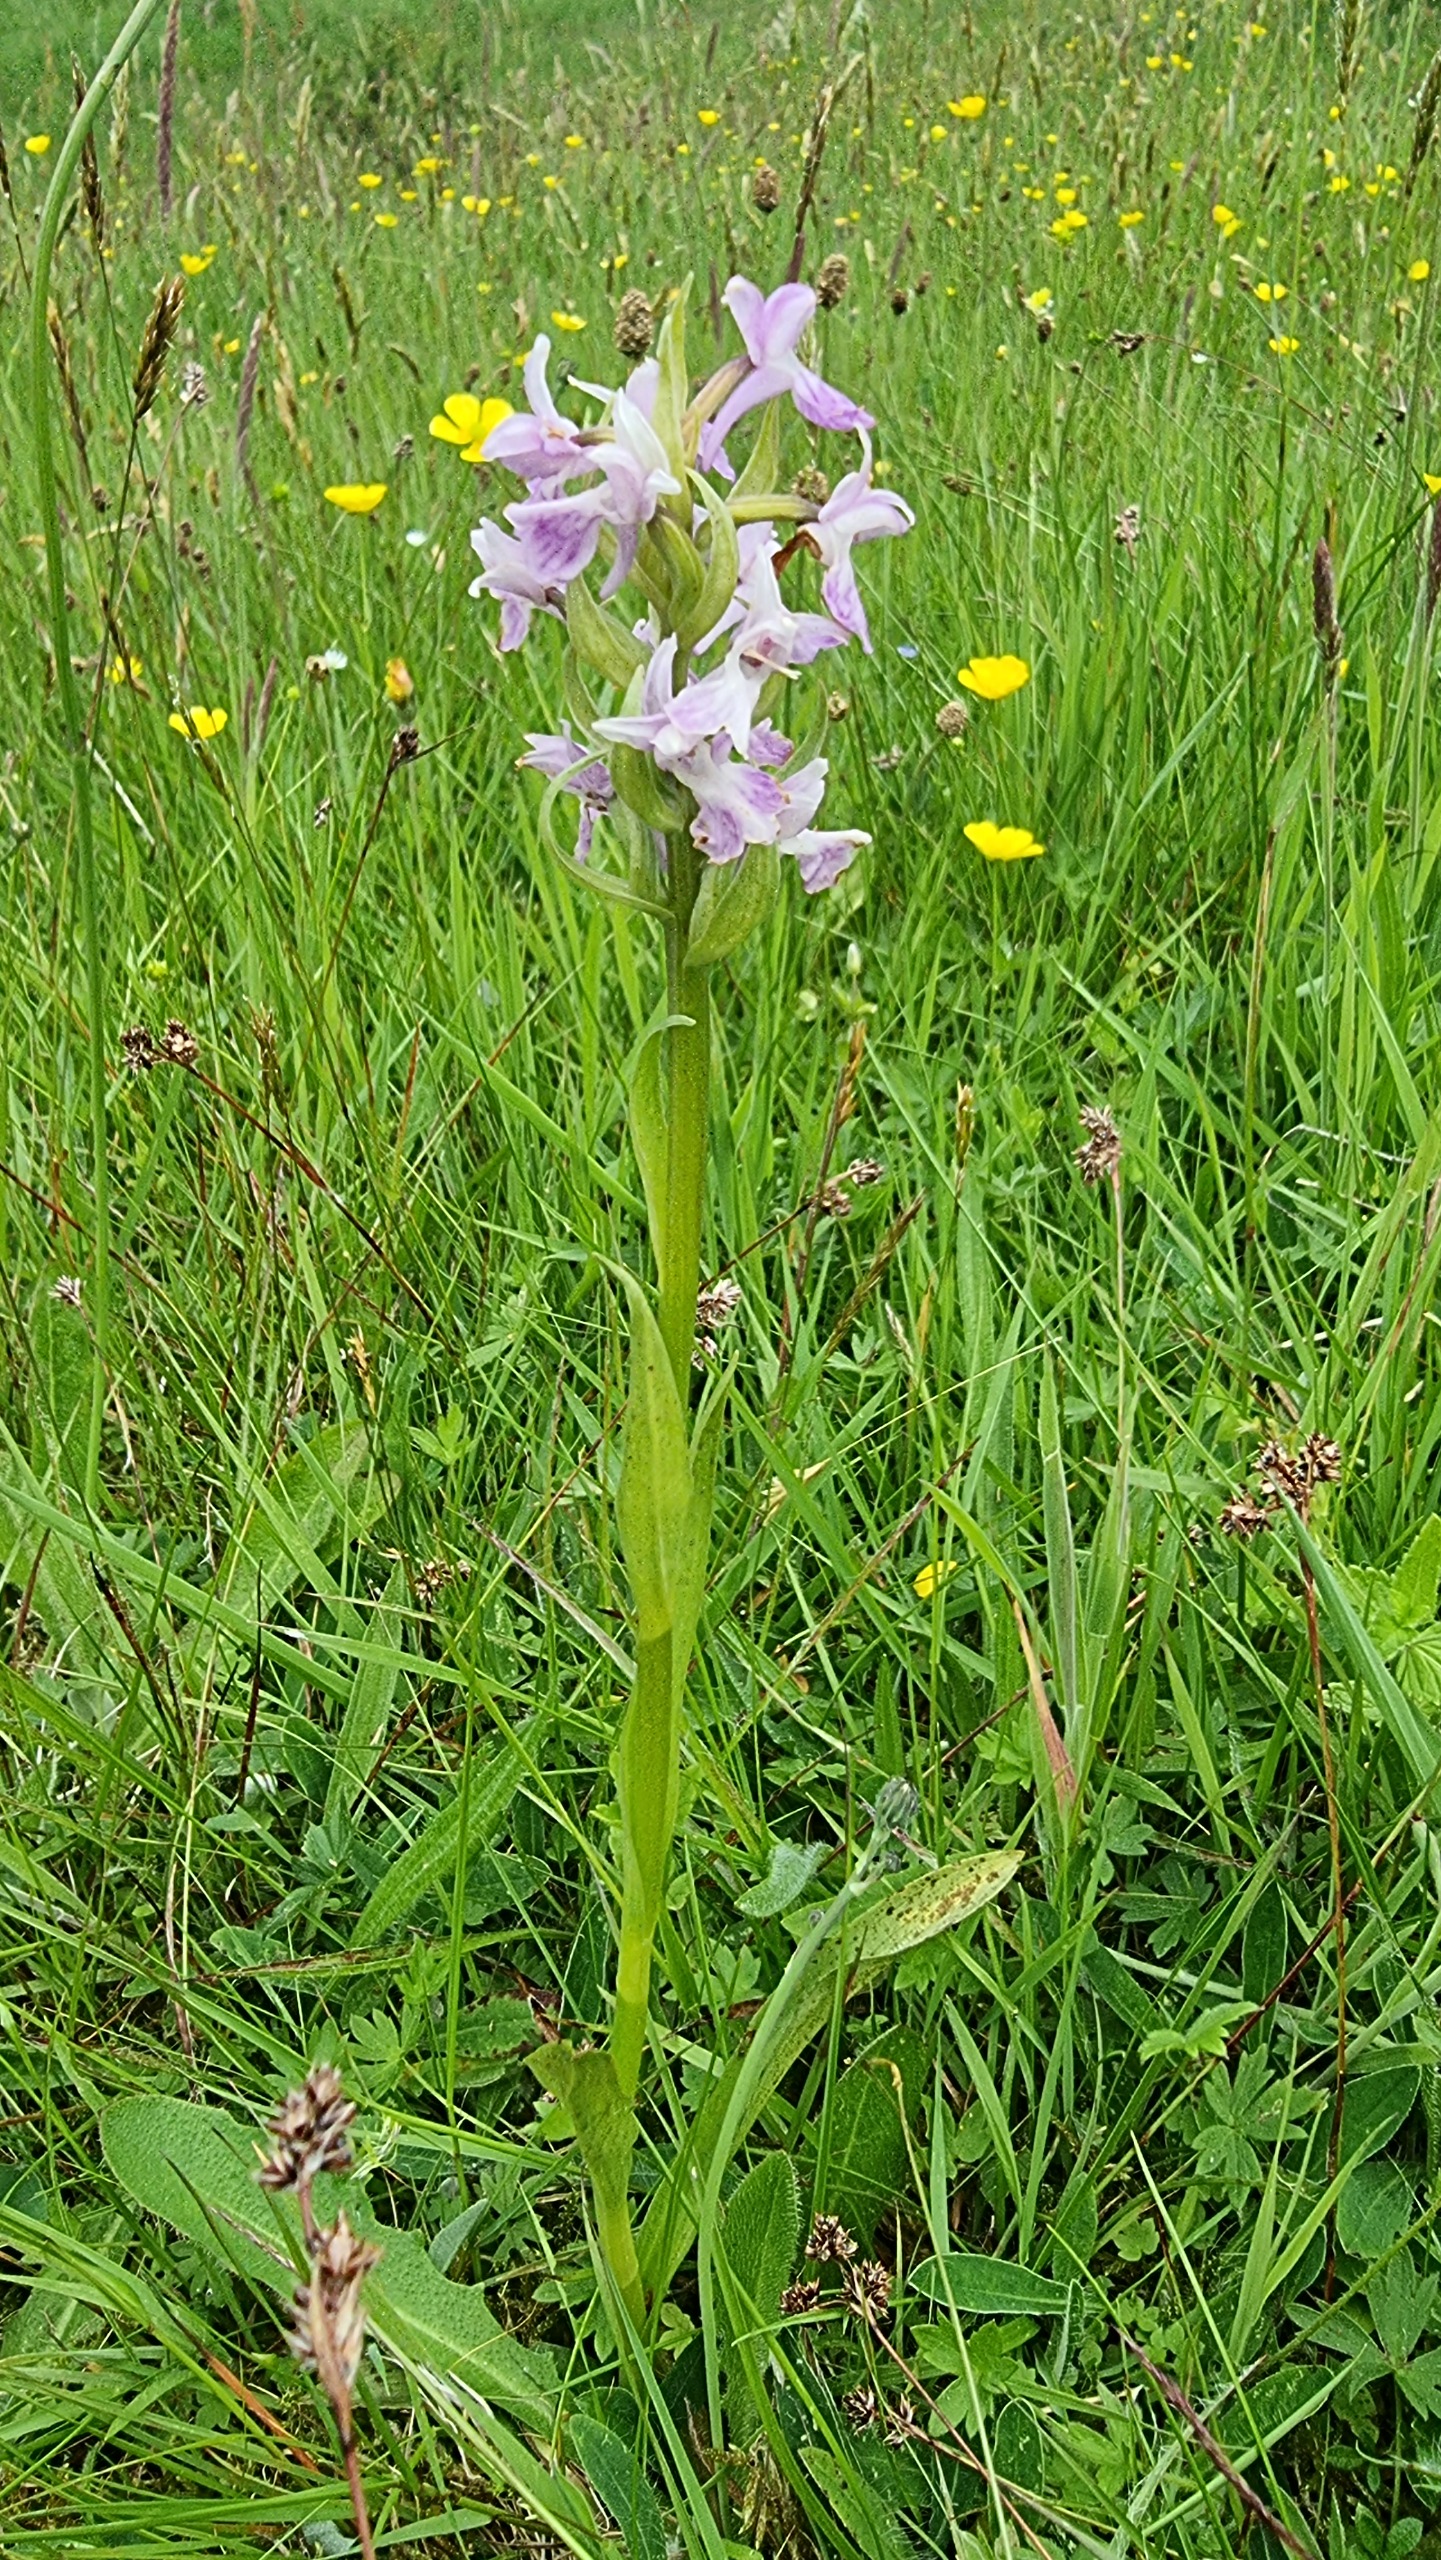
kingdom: Plantae
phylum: Tracheophyta
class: Liliopsida
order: Asparagales
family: Orchidaceae
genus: Dactylorhiza
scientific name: Dactylorhiza incarnata
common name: Kødfarvet gøgeurt
